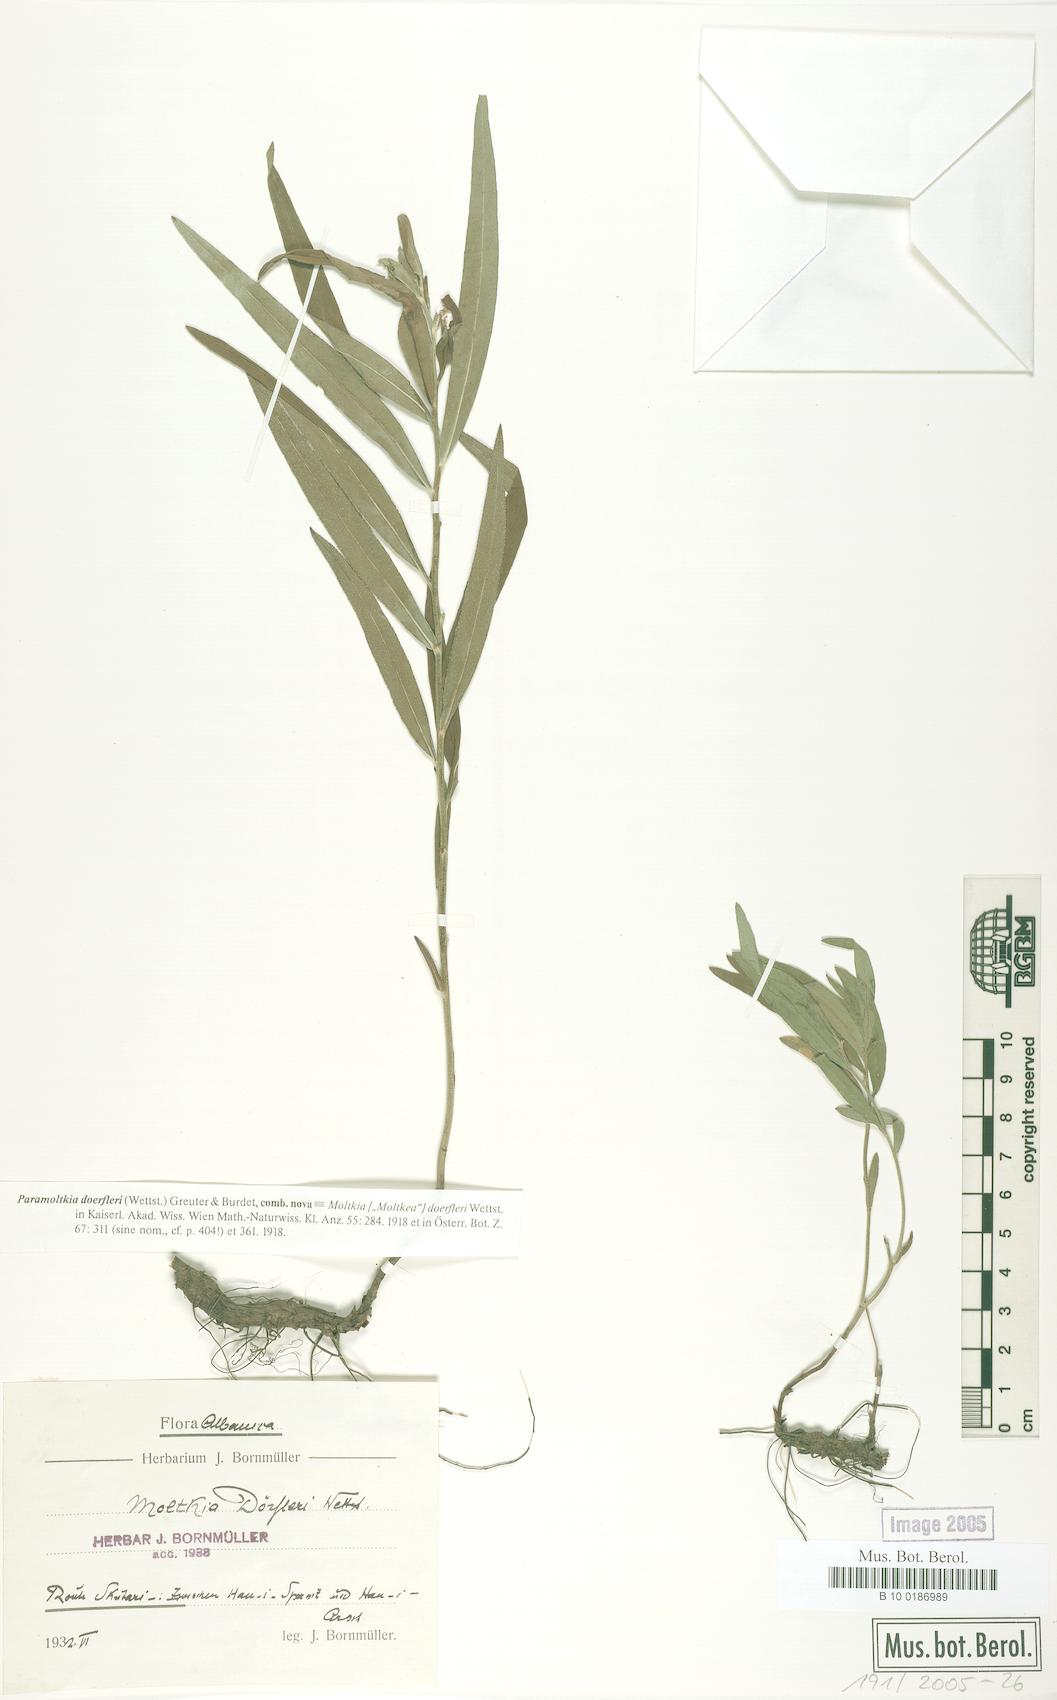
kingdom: Plantae
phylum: Tracheophyta
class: Magnoliopsida
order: Boraginales
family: Boraginaceae
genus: Paramoltkia
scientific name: Paramoltkia doerfleri
